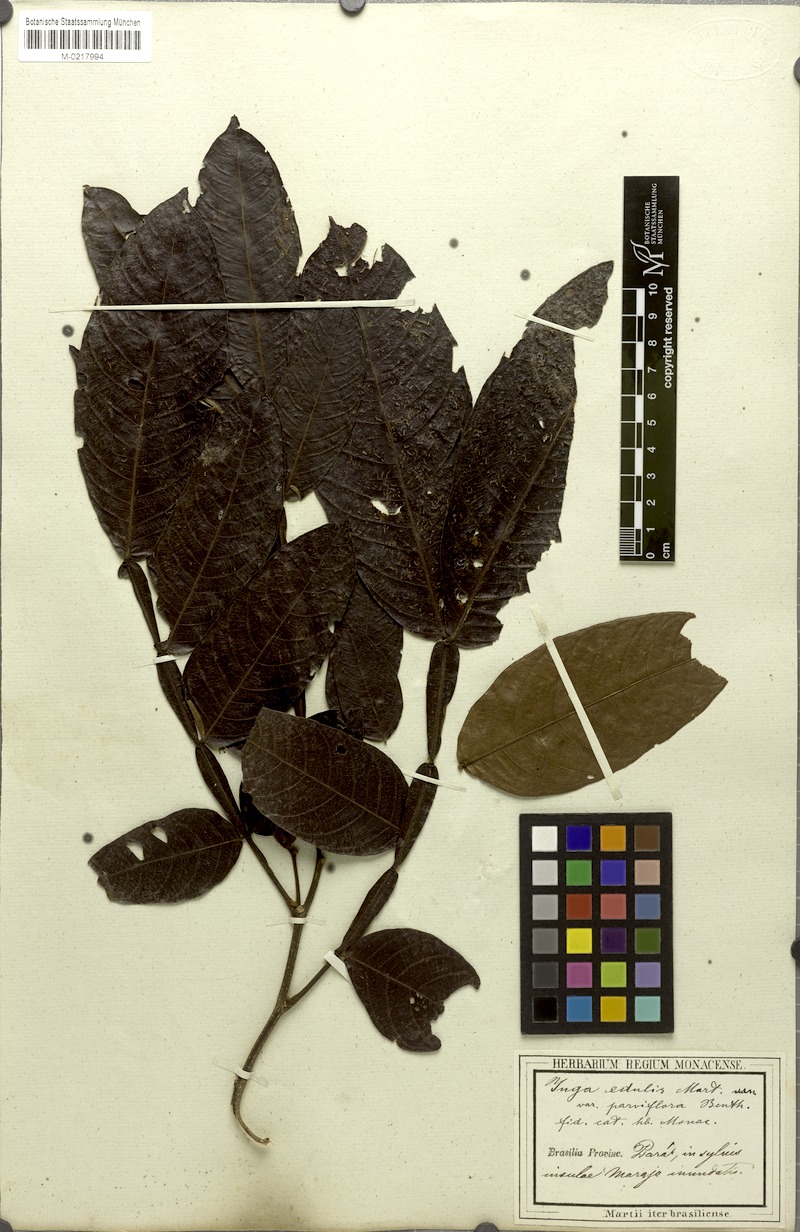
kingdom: Plantae
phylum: Tracheophyta
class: Magnoliopsida
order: Fabales
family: Fabaceae
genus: Inga
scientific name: Inga edulis
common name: Ice cream bean
